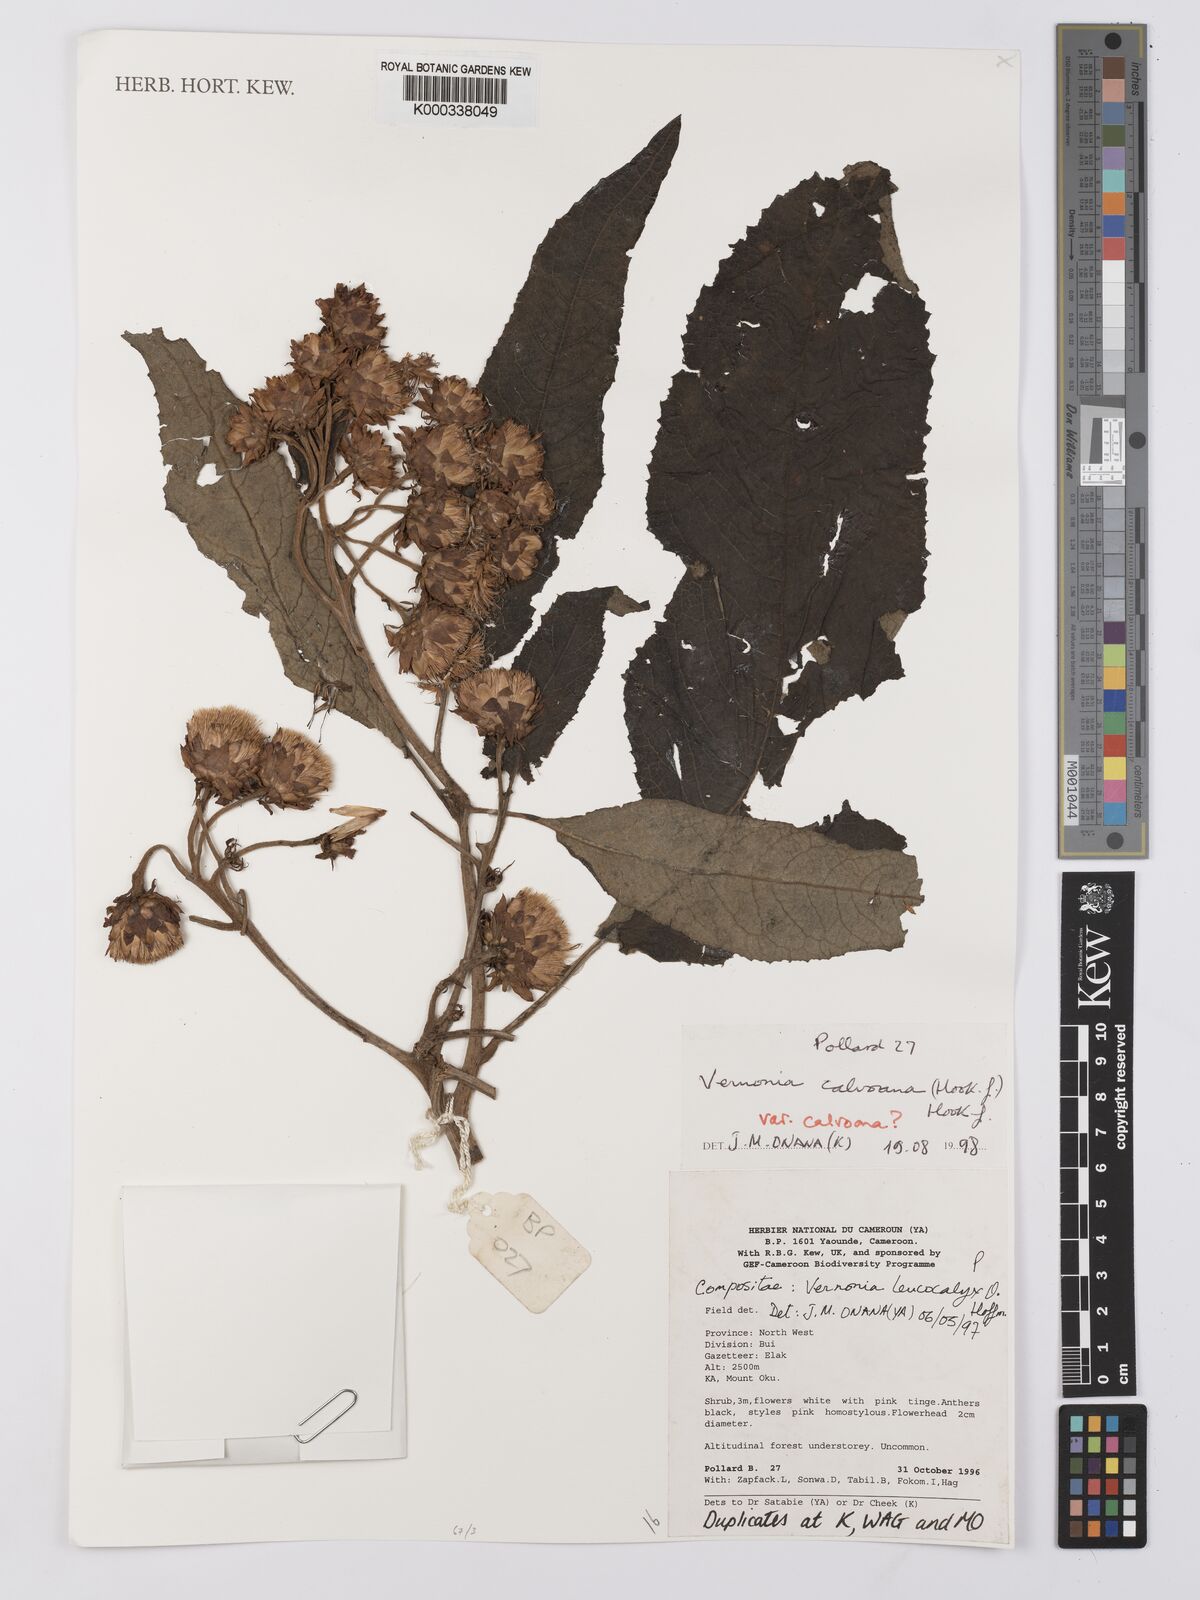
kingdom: Plantae
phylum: Tracheophyta
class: Magnoliopsida
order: Asterales
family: Asteraceae
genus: Baccharoides
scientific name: Baccharoides calvoana
